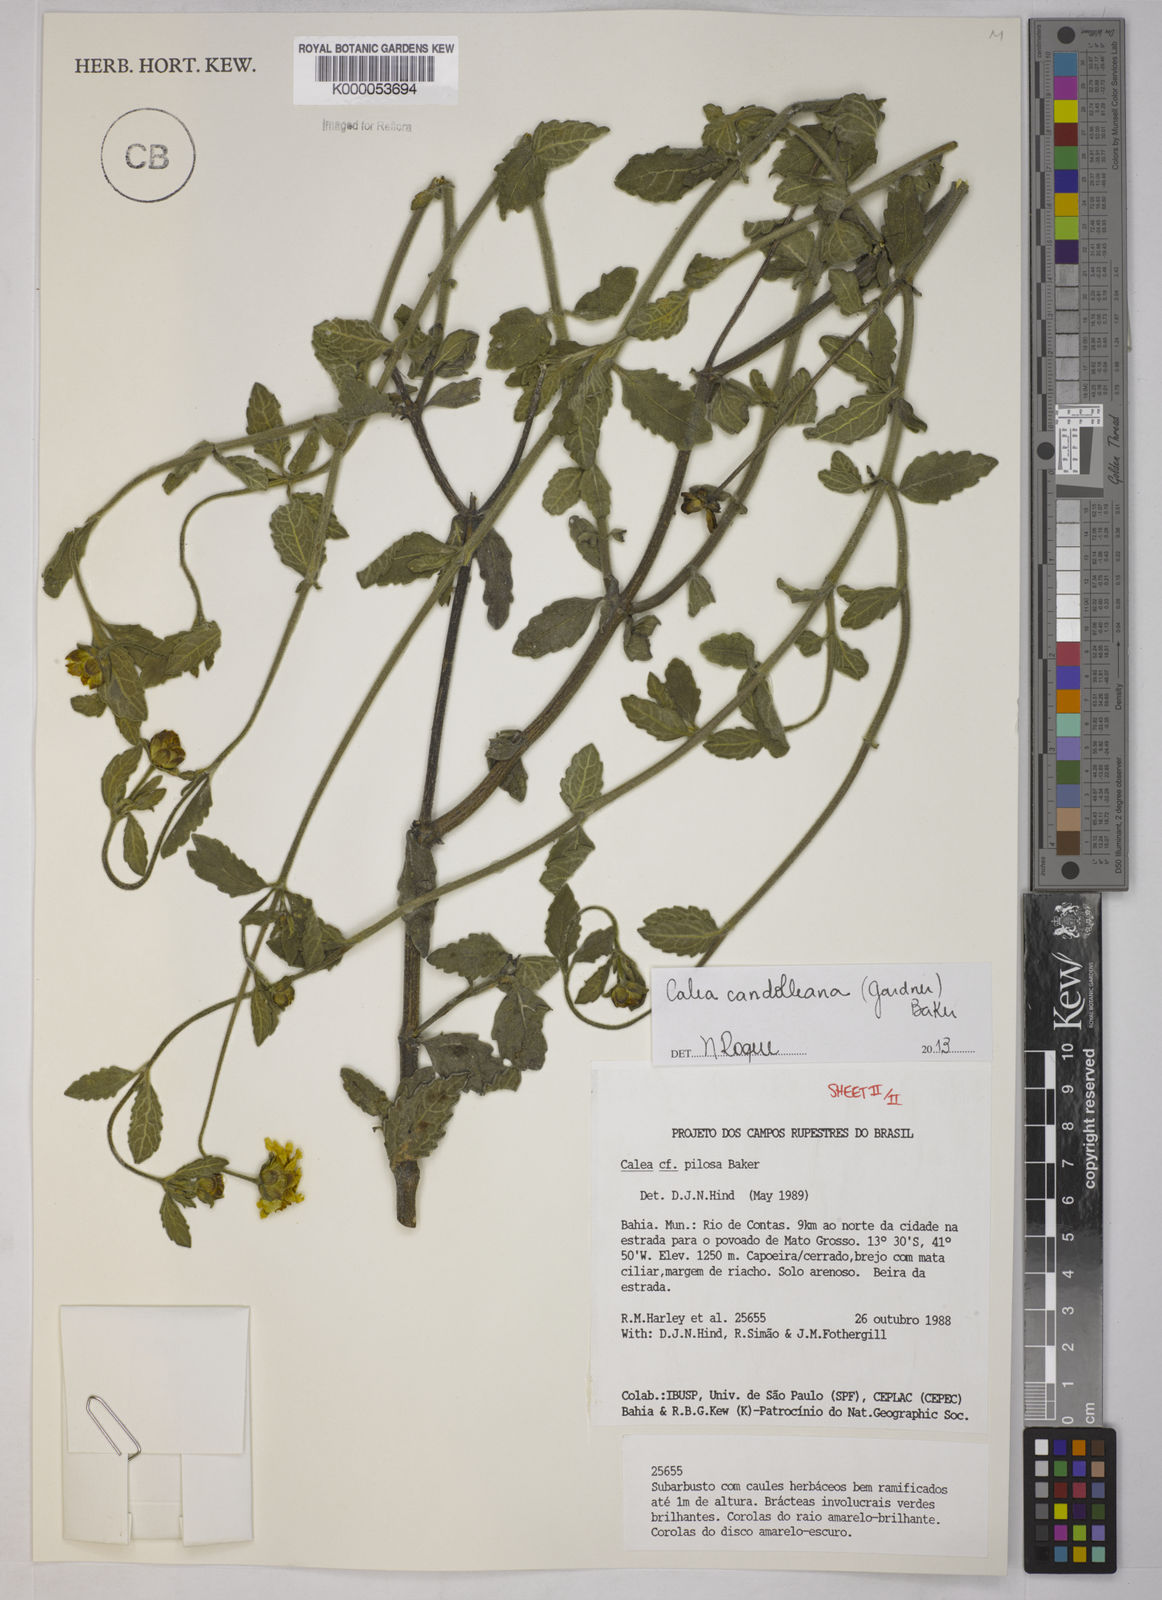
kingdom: Plantae
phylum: Tracheophyta
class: Magnoliopsida
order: Asterales
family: Asteraceae
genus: Calea
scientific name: Calea pilosa
